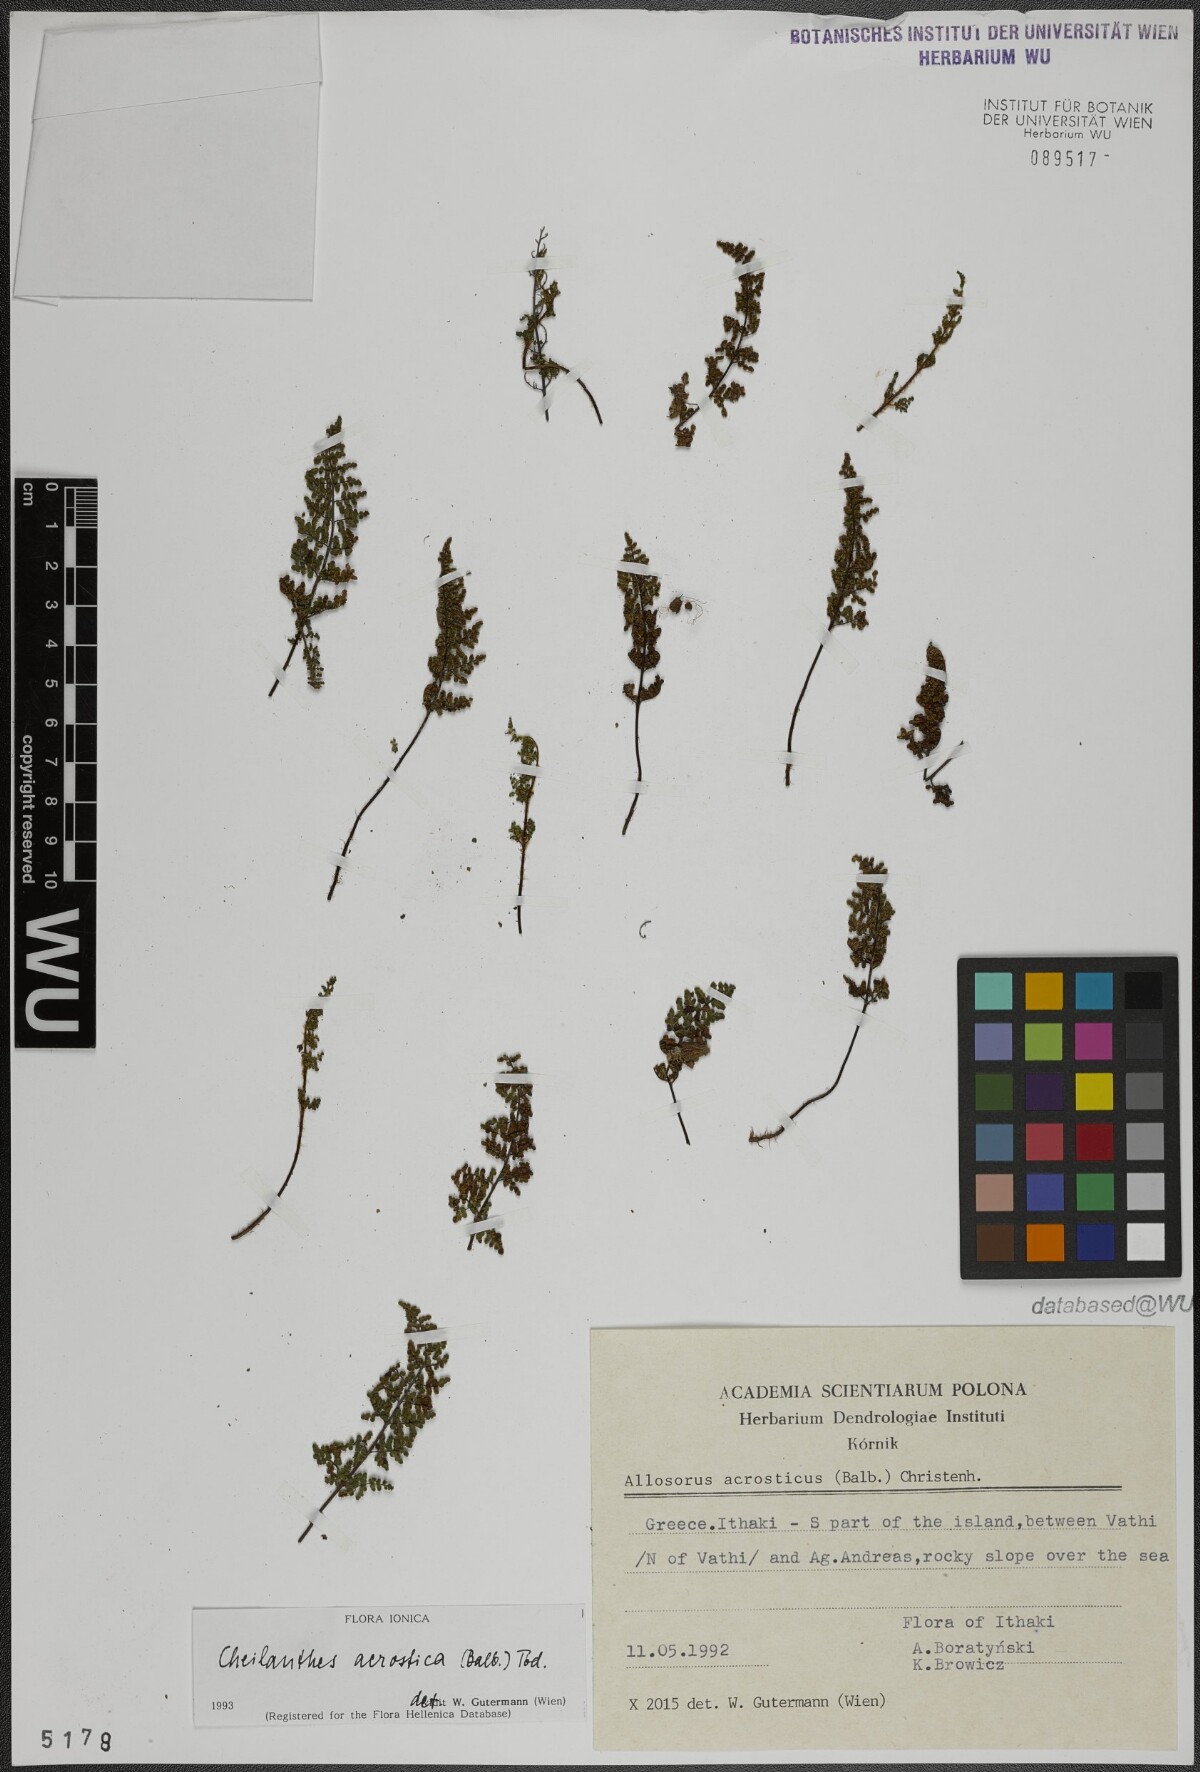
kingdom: Plantae
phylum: Tracheophyta
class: Polypodiopsida
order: Polypodiales
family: Pteridaceae
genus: Oeosporangium
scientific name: Oeosporangium pteridioides
